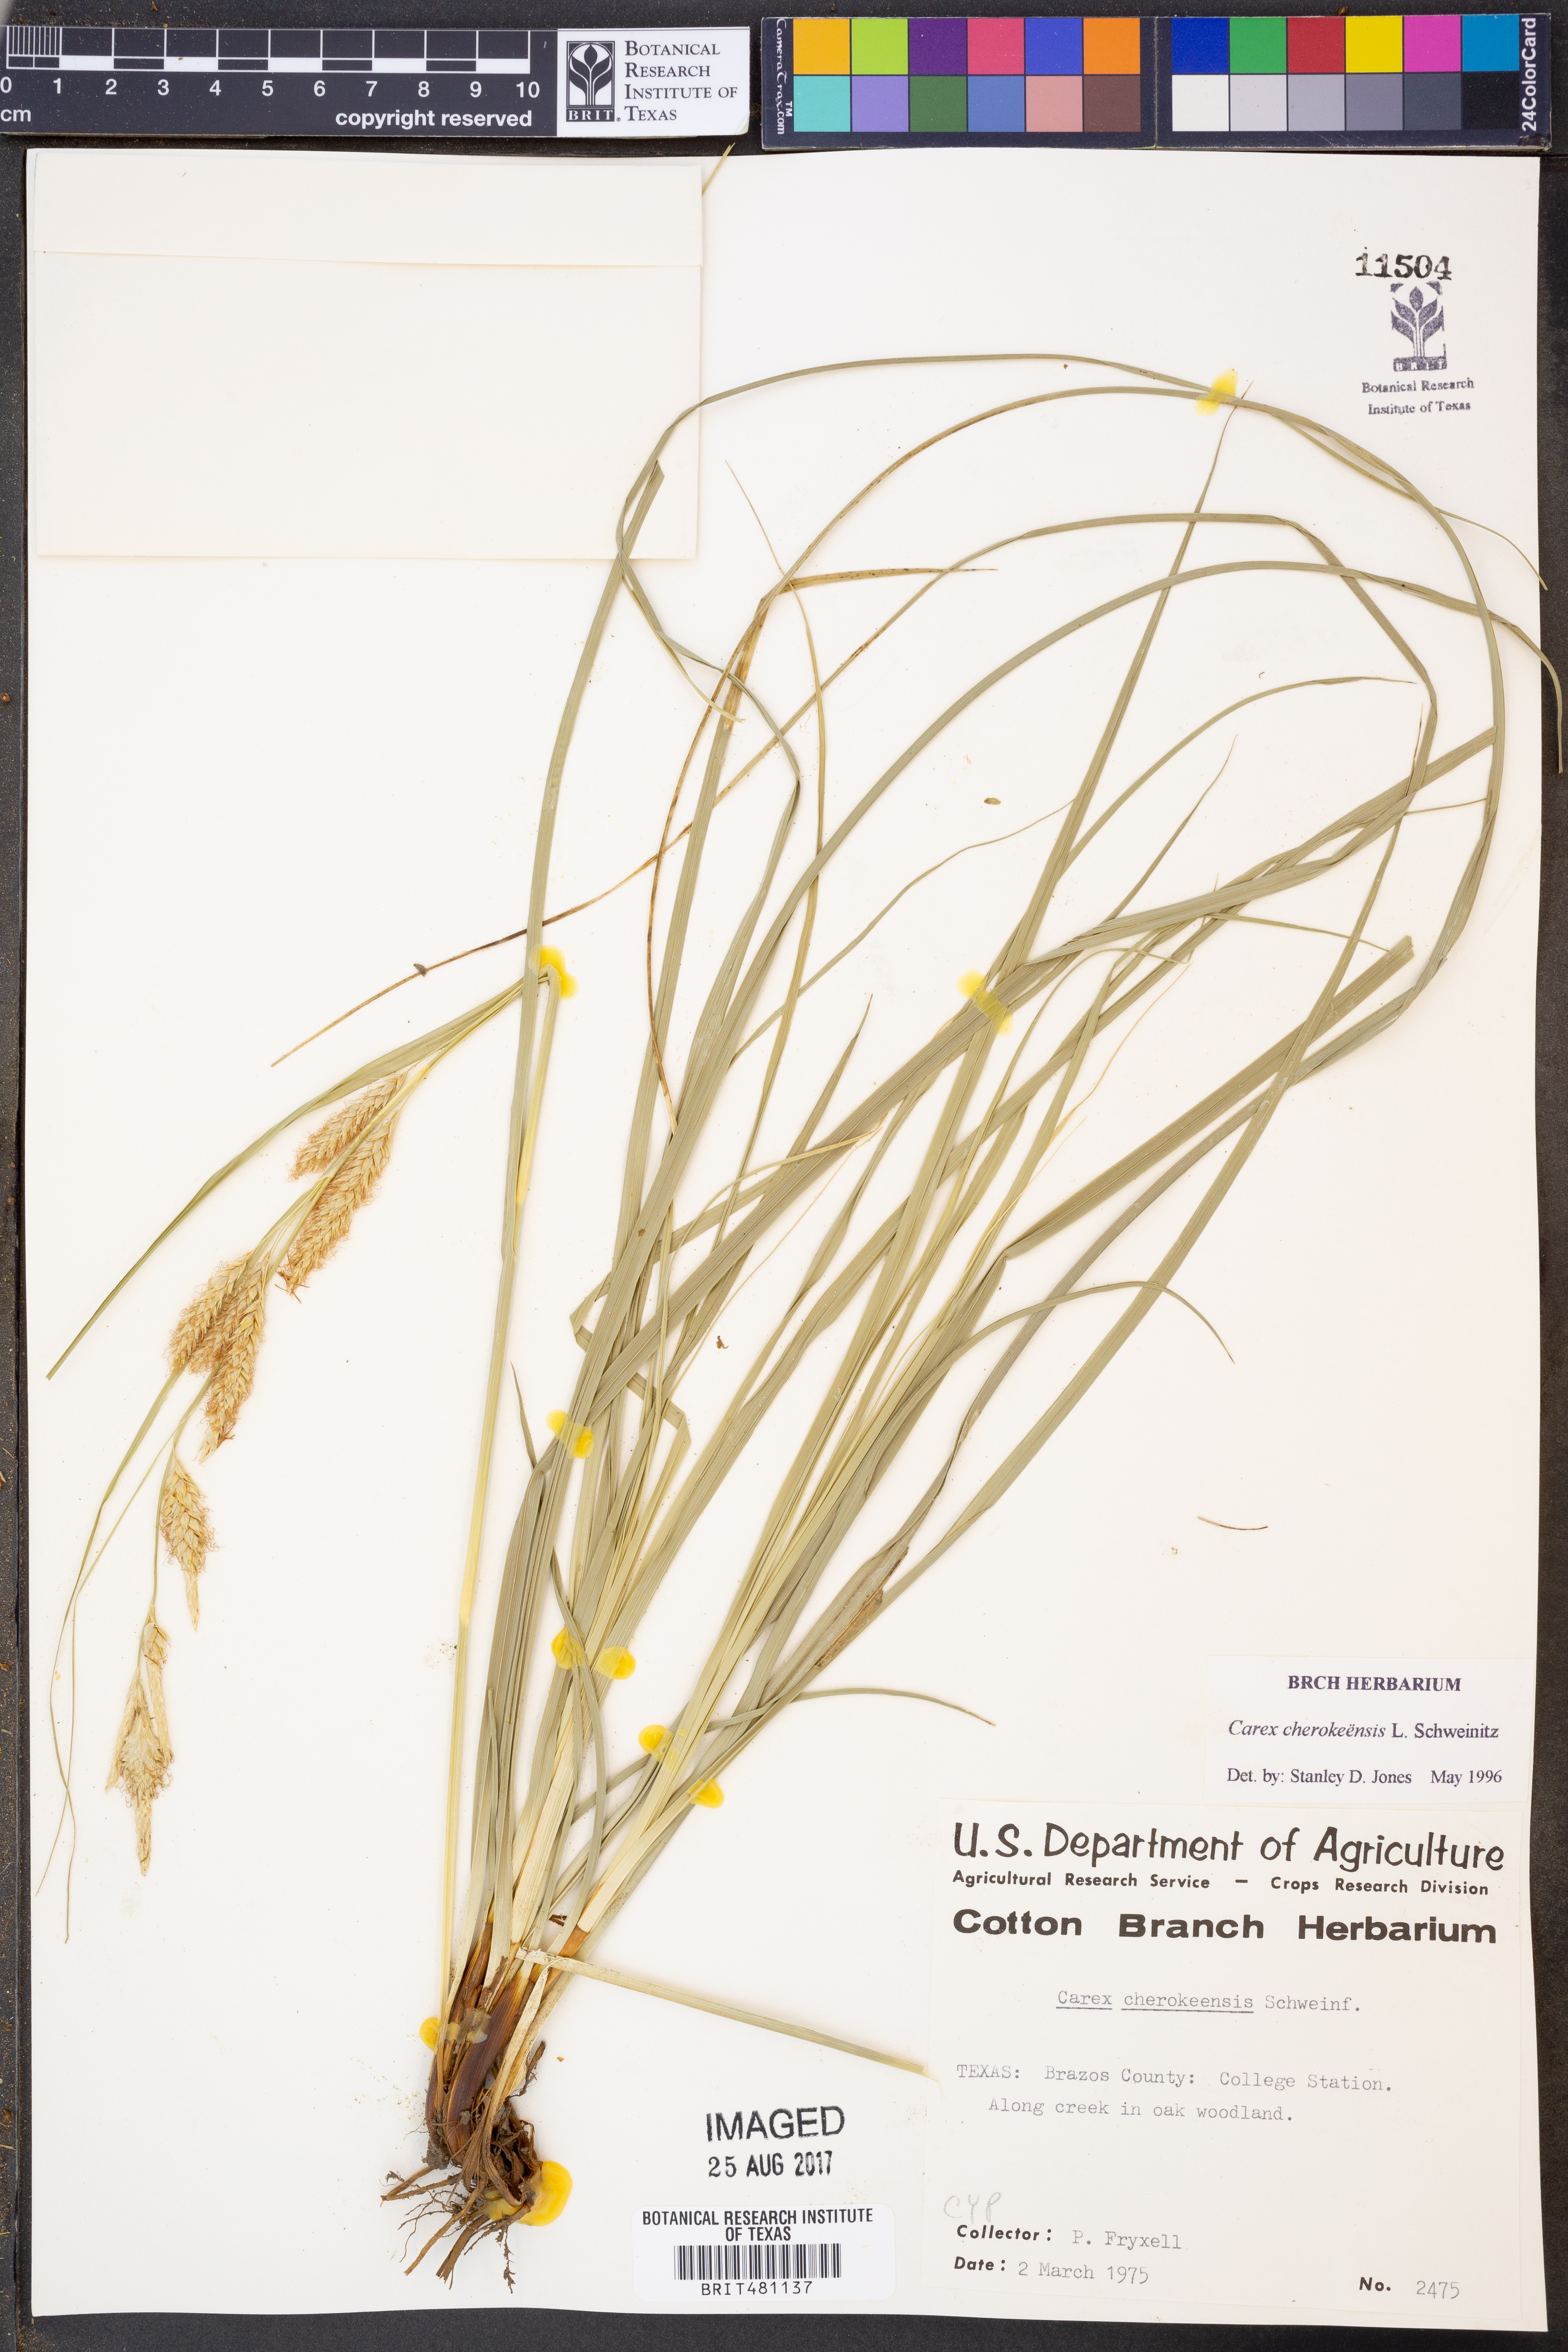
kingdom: Plantae
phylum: Tracheophyta
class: Liliopsida
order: Poales
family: Cyperaceae
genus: Carex
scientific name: Carex cherokeensis
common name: Cherokee sedge
